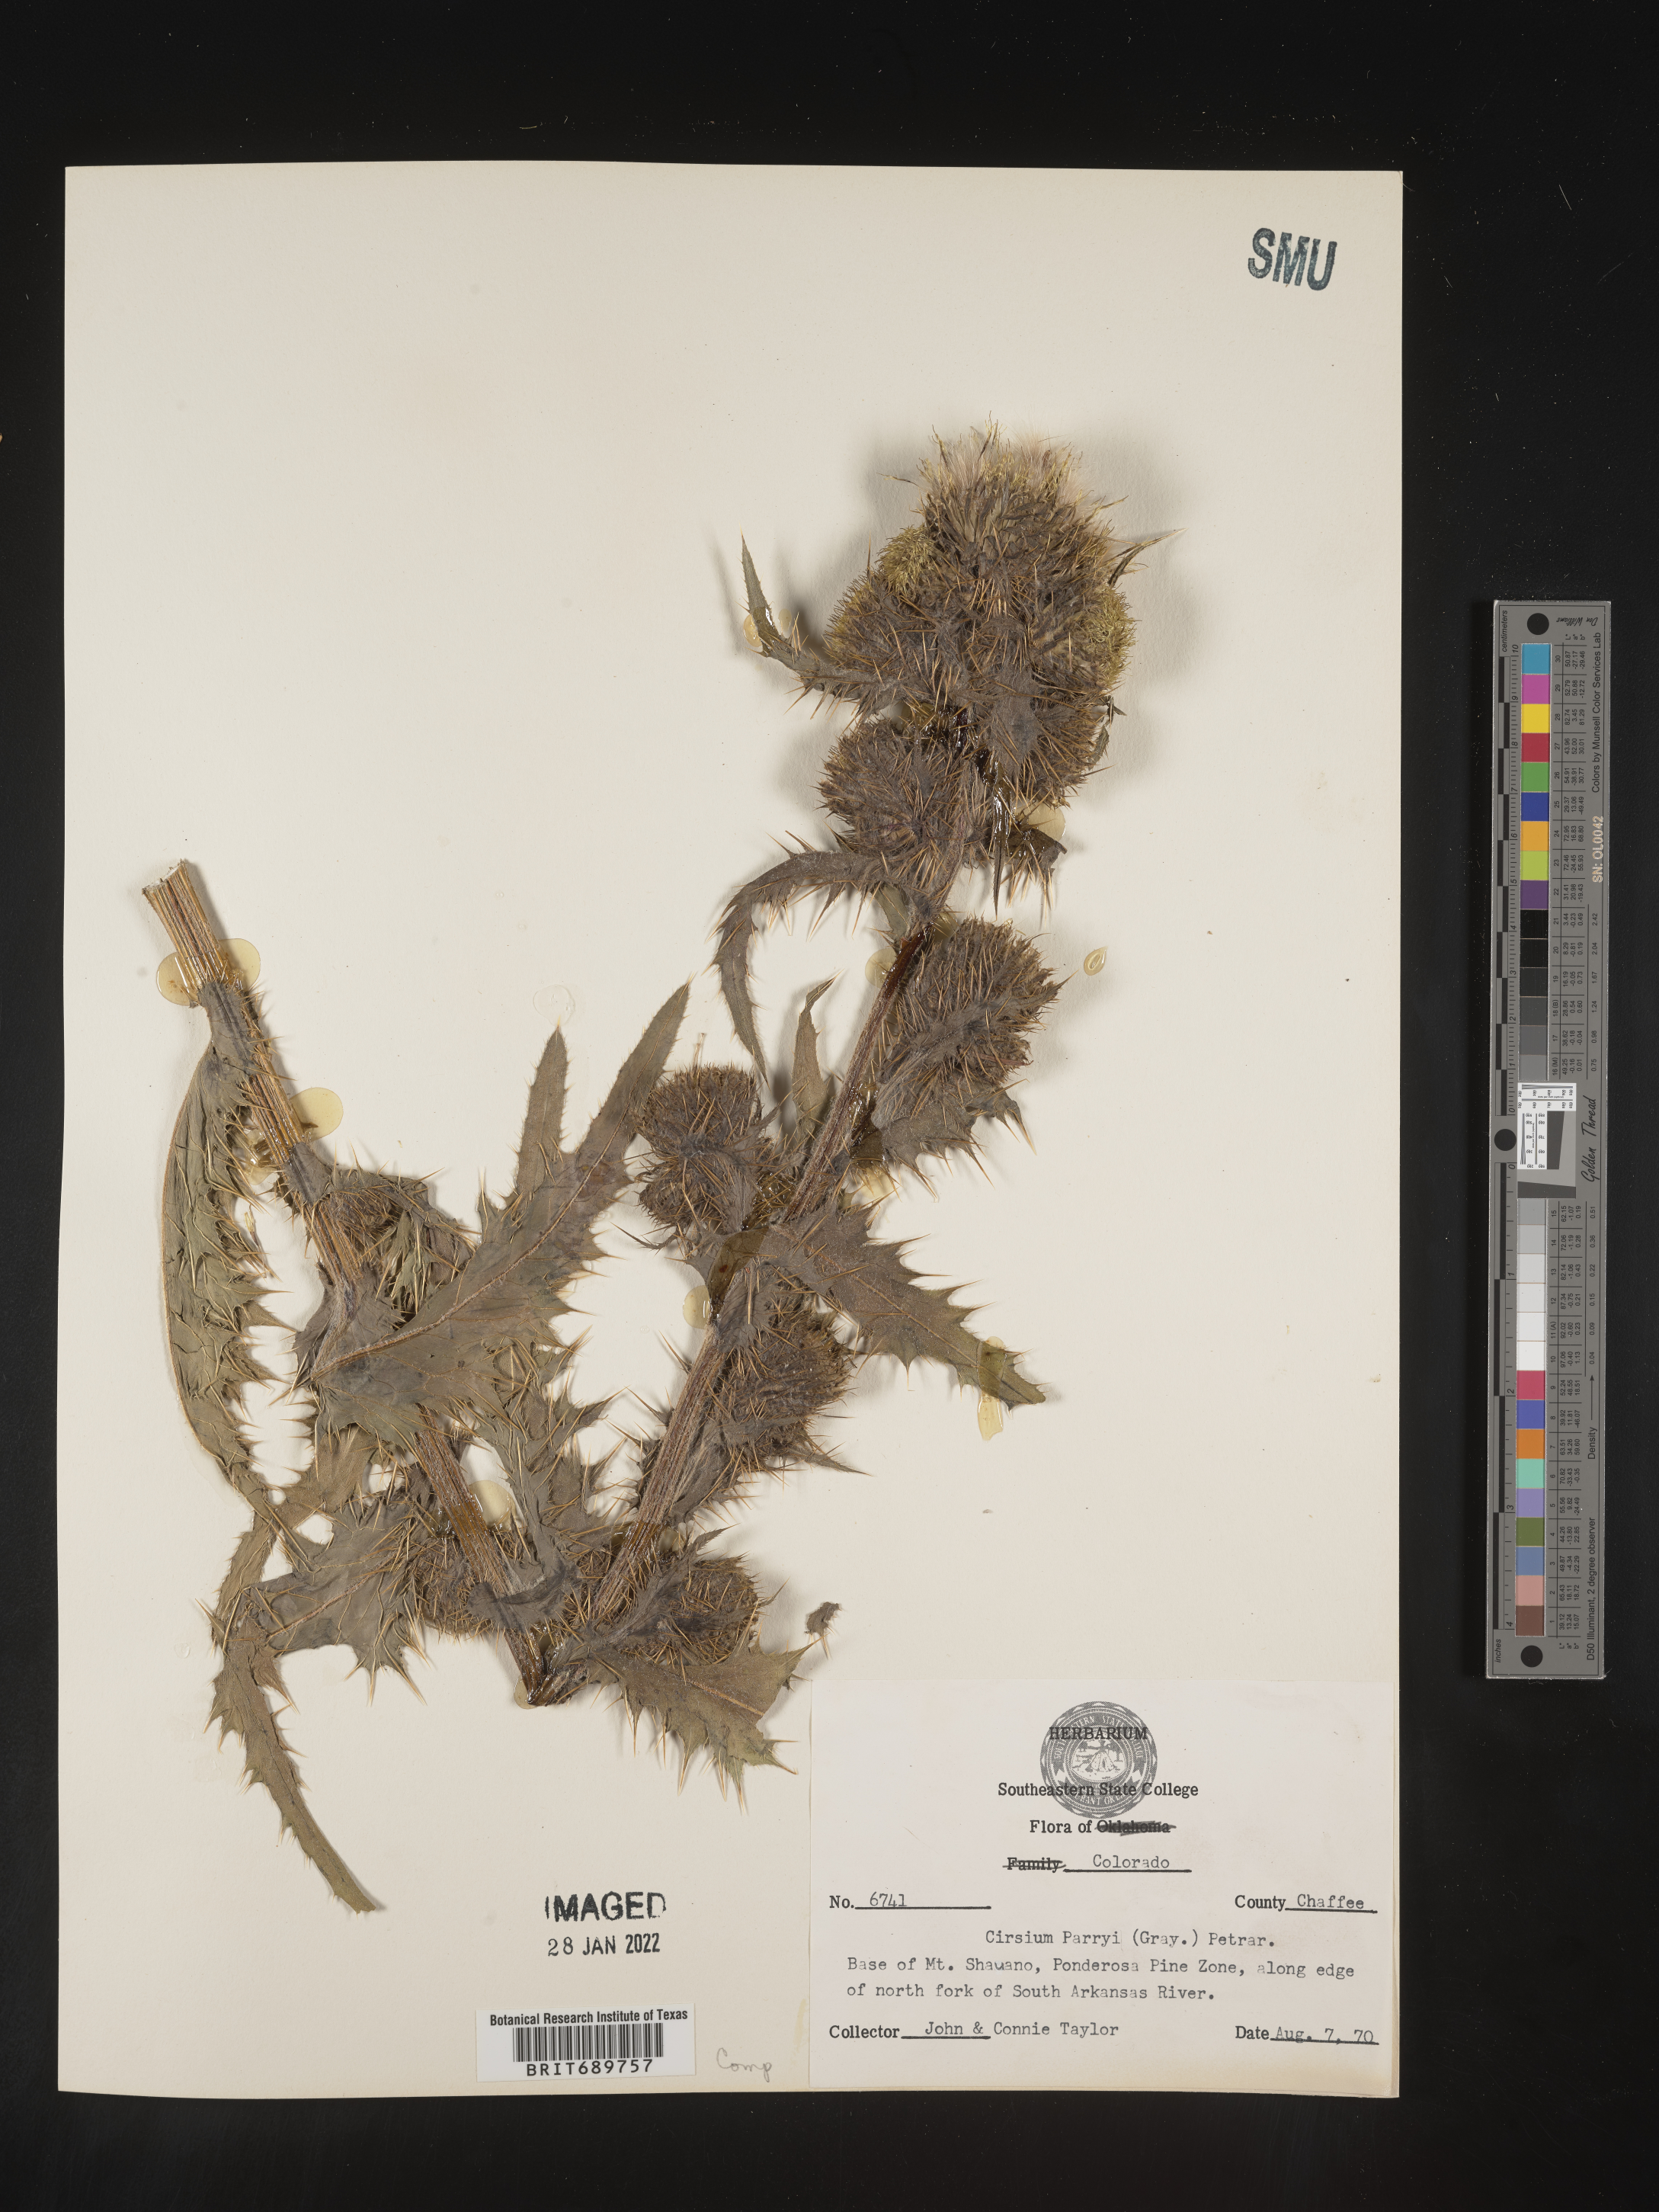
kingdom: Plantae
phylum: Tracheophyta
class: Magnoliopsida
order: Asterales
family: Asteraceae
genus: Cirsium
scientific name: Cirsium parryi
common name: Parry's thistle
